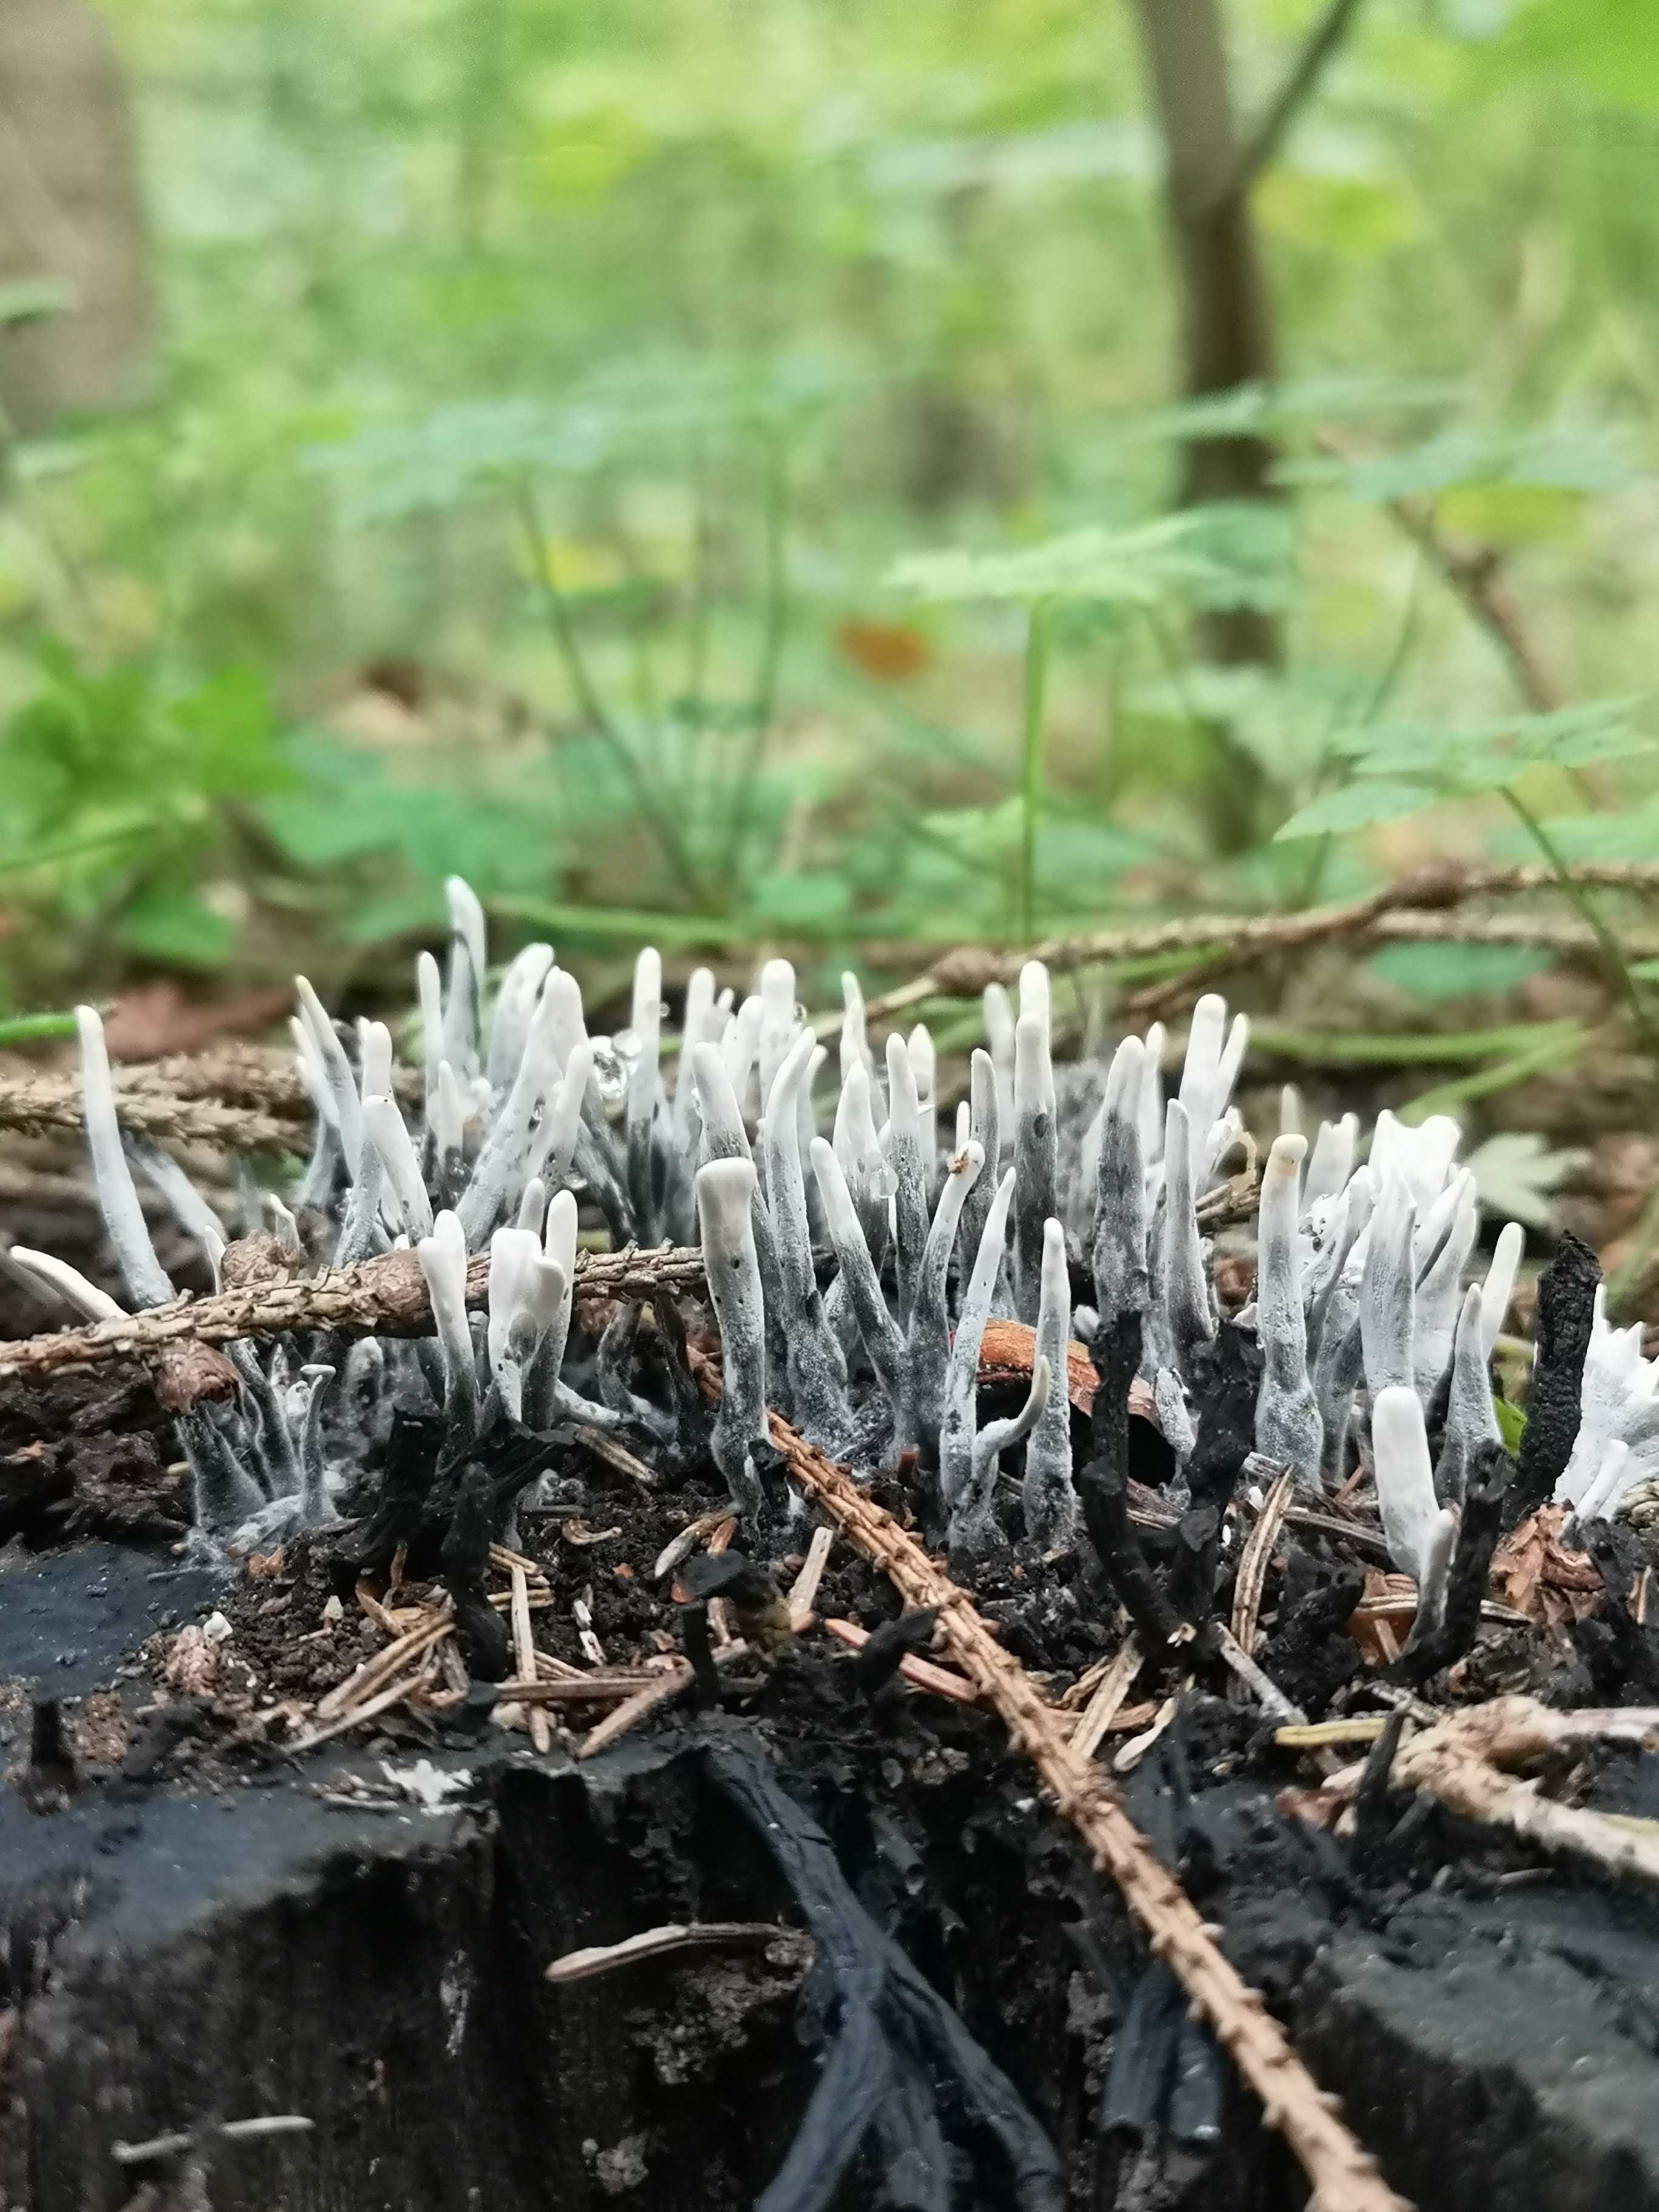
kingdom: Fungi
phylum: Ascomycota
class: Sordariomycetes
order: Xylariales
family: Xylariaceae
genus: Xylaria
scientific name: Xylaria hypoxylon
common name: grenet stødsvamp
